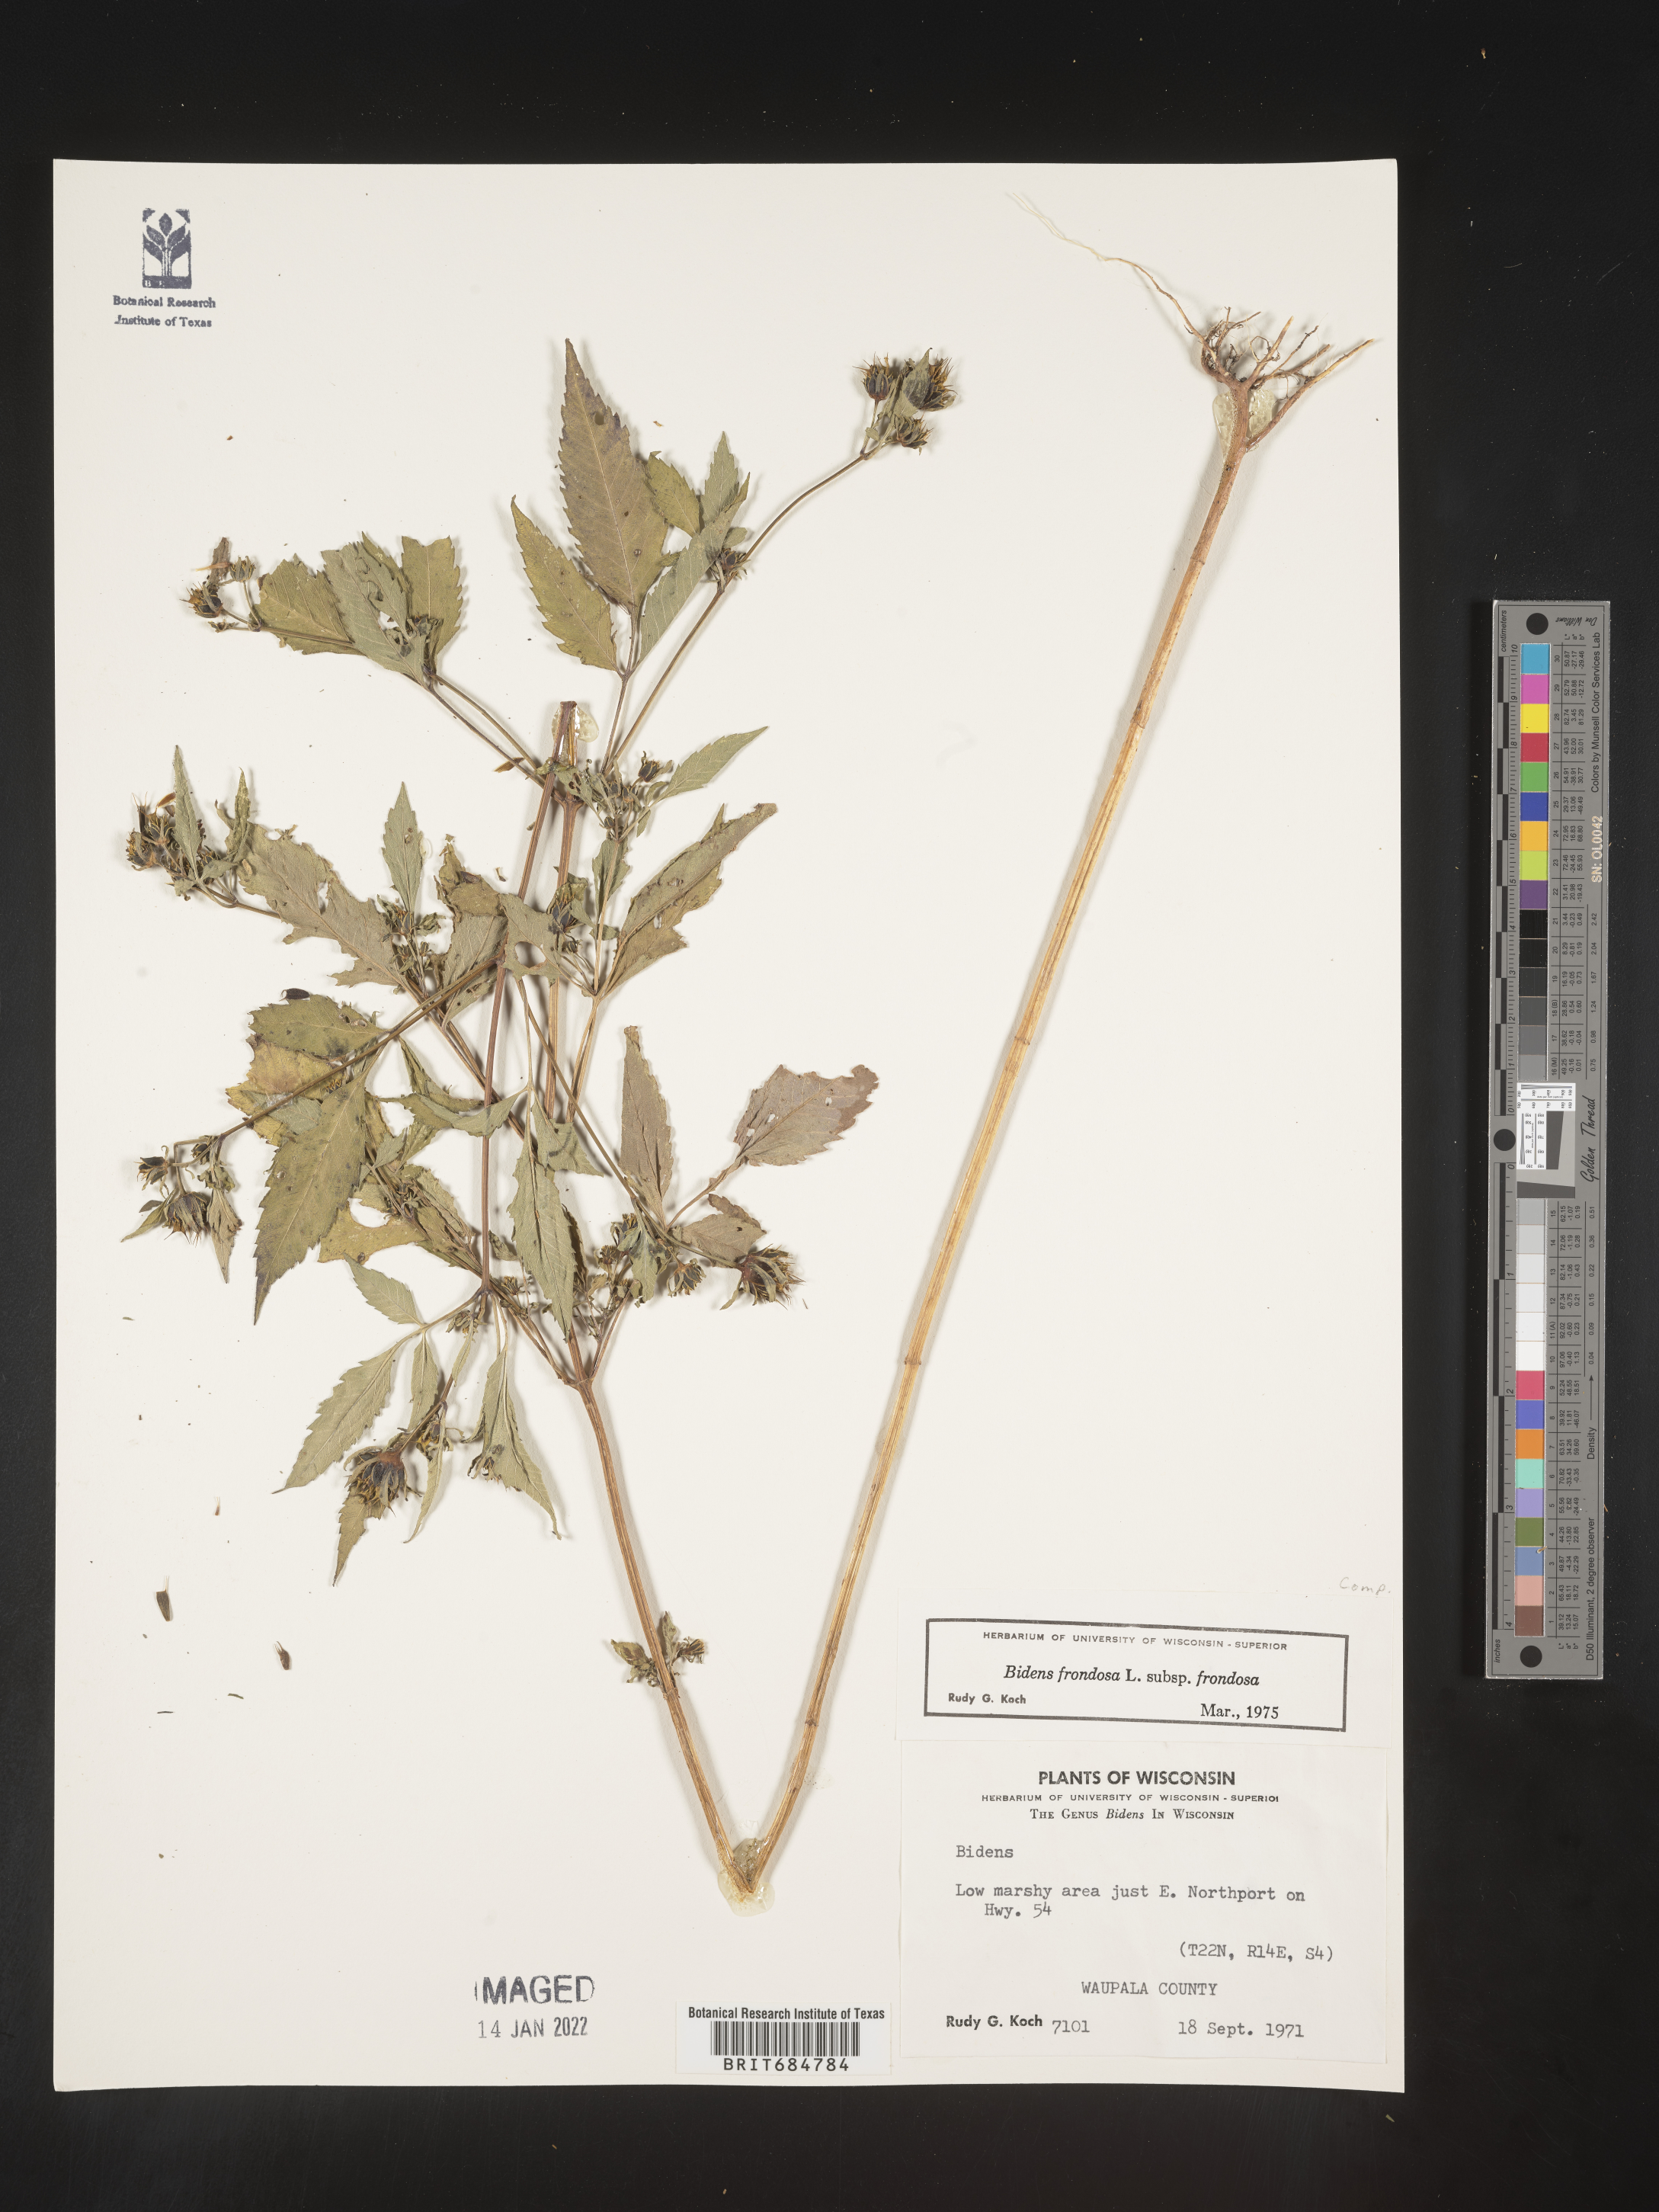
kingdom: Plantae
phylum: Tracheophyta
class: Magnoliopsida
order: Asterales
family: Asteraceae
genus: Bidens
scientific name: Bidens frondosa
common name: Beggarticks
